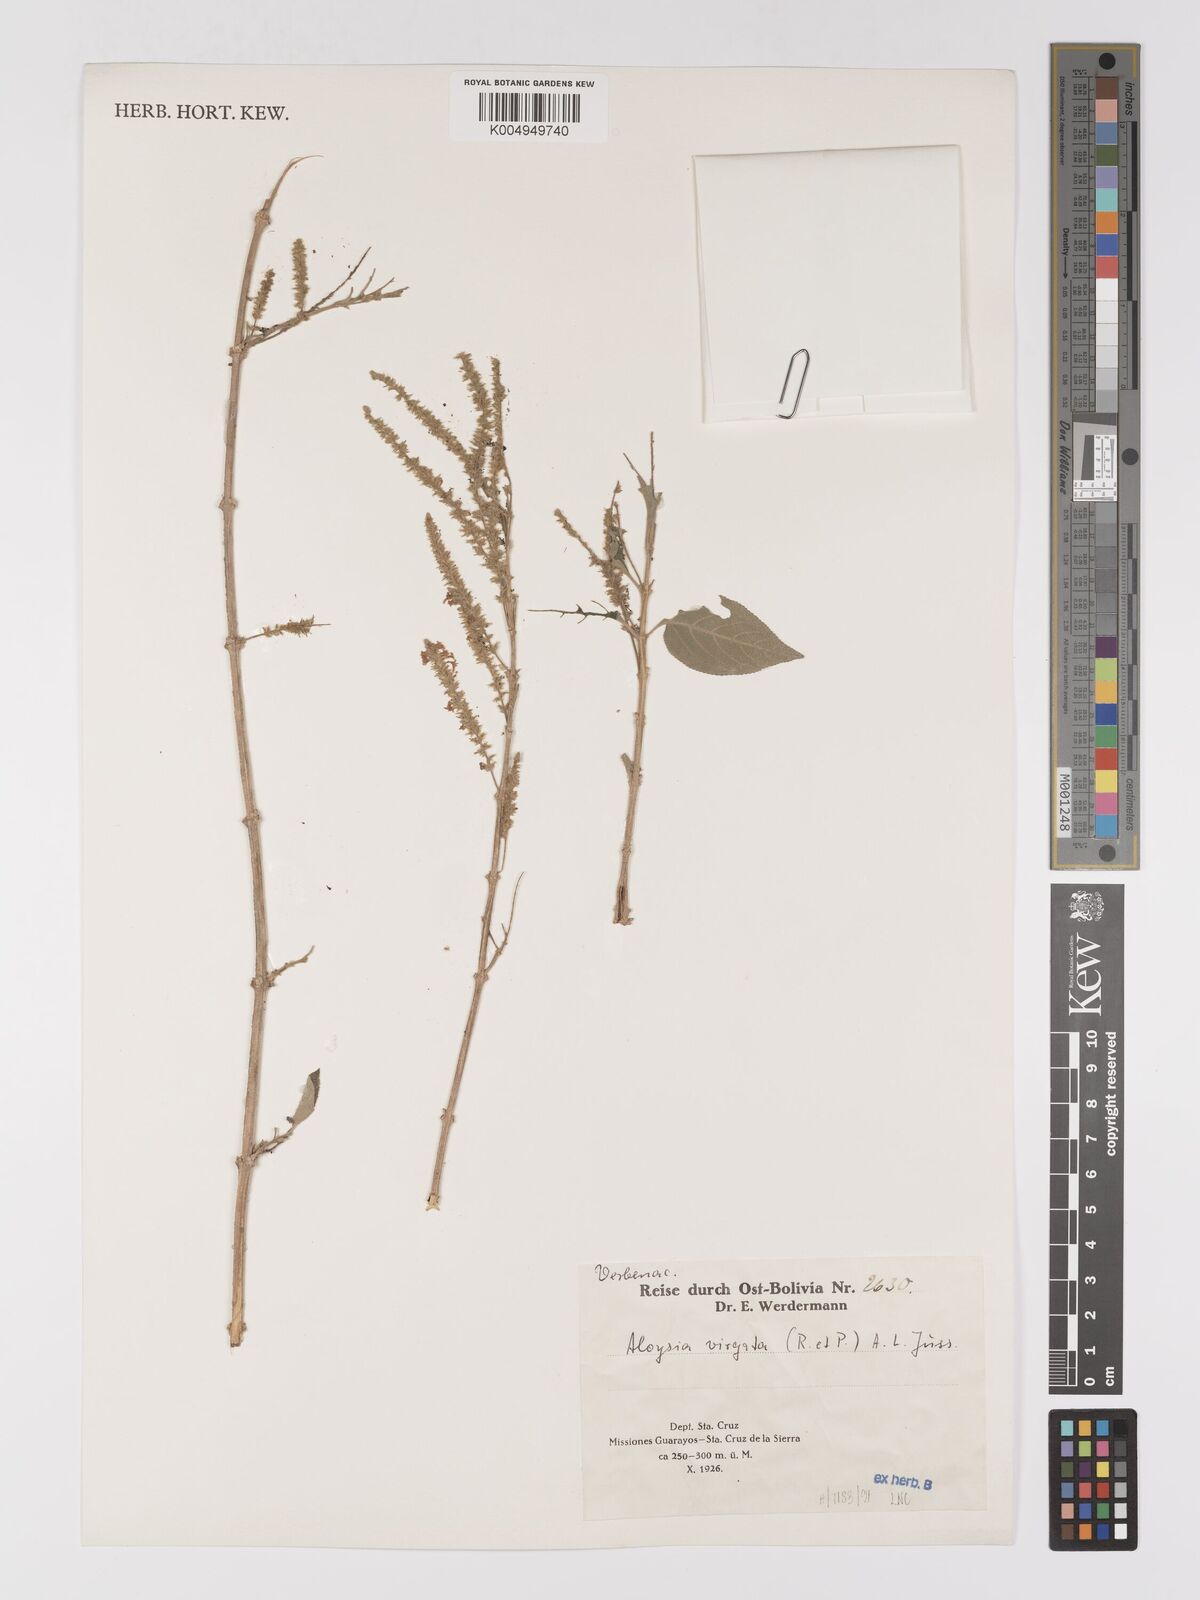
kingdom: Plantae
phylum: Tracheophyta
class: Magnoliopsida
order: Lamiales
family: Verbenaceae
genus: Aloysia
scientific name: Aloysia virgata
